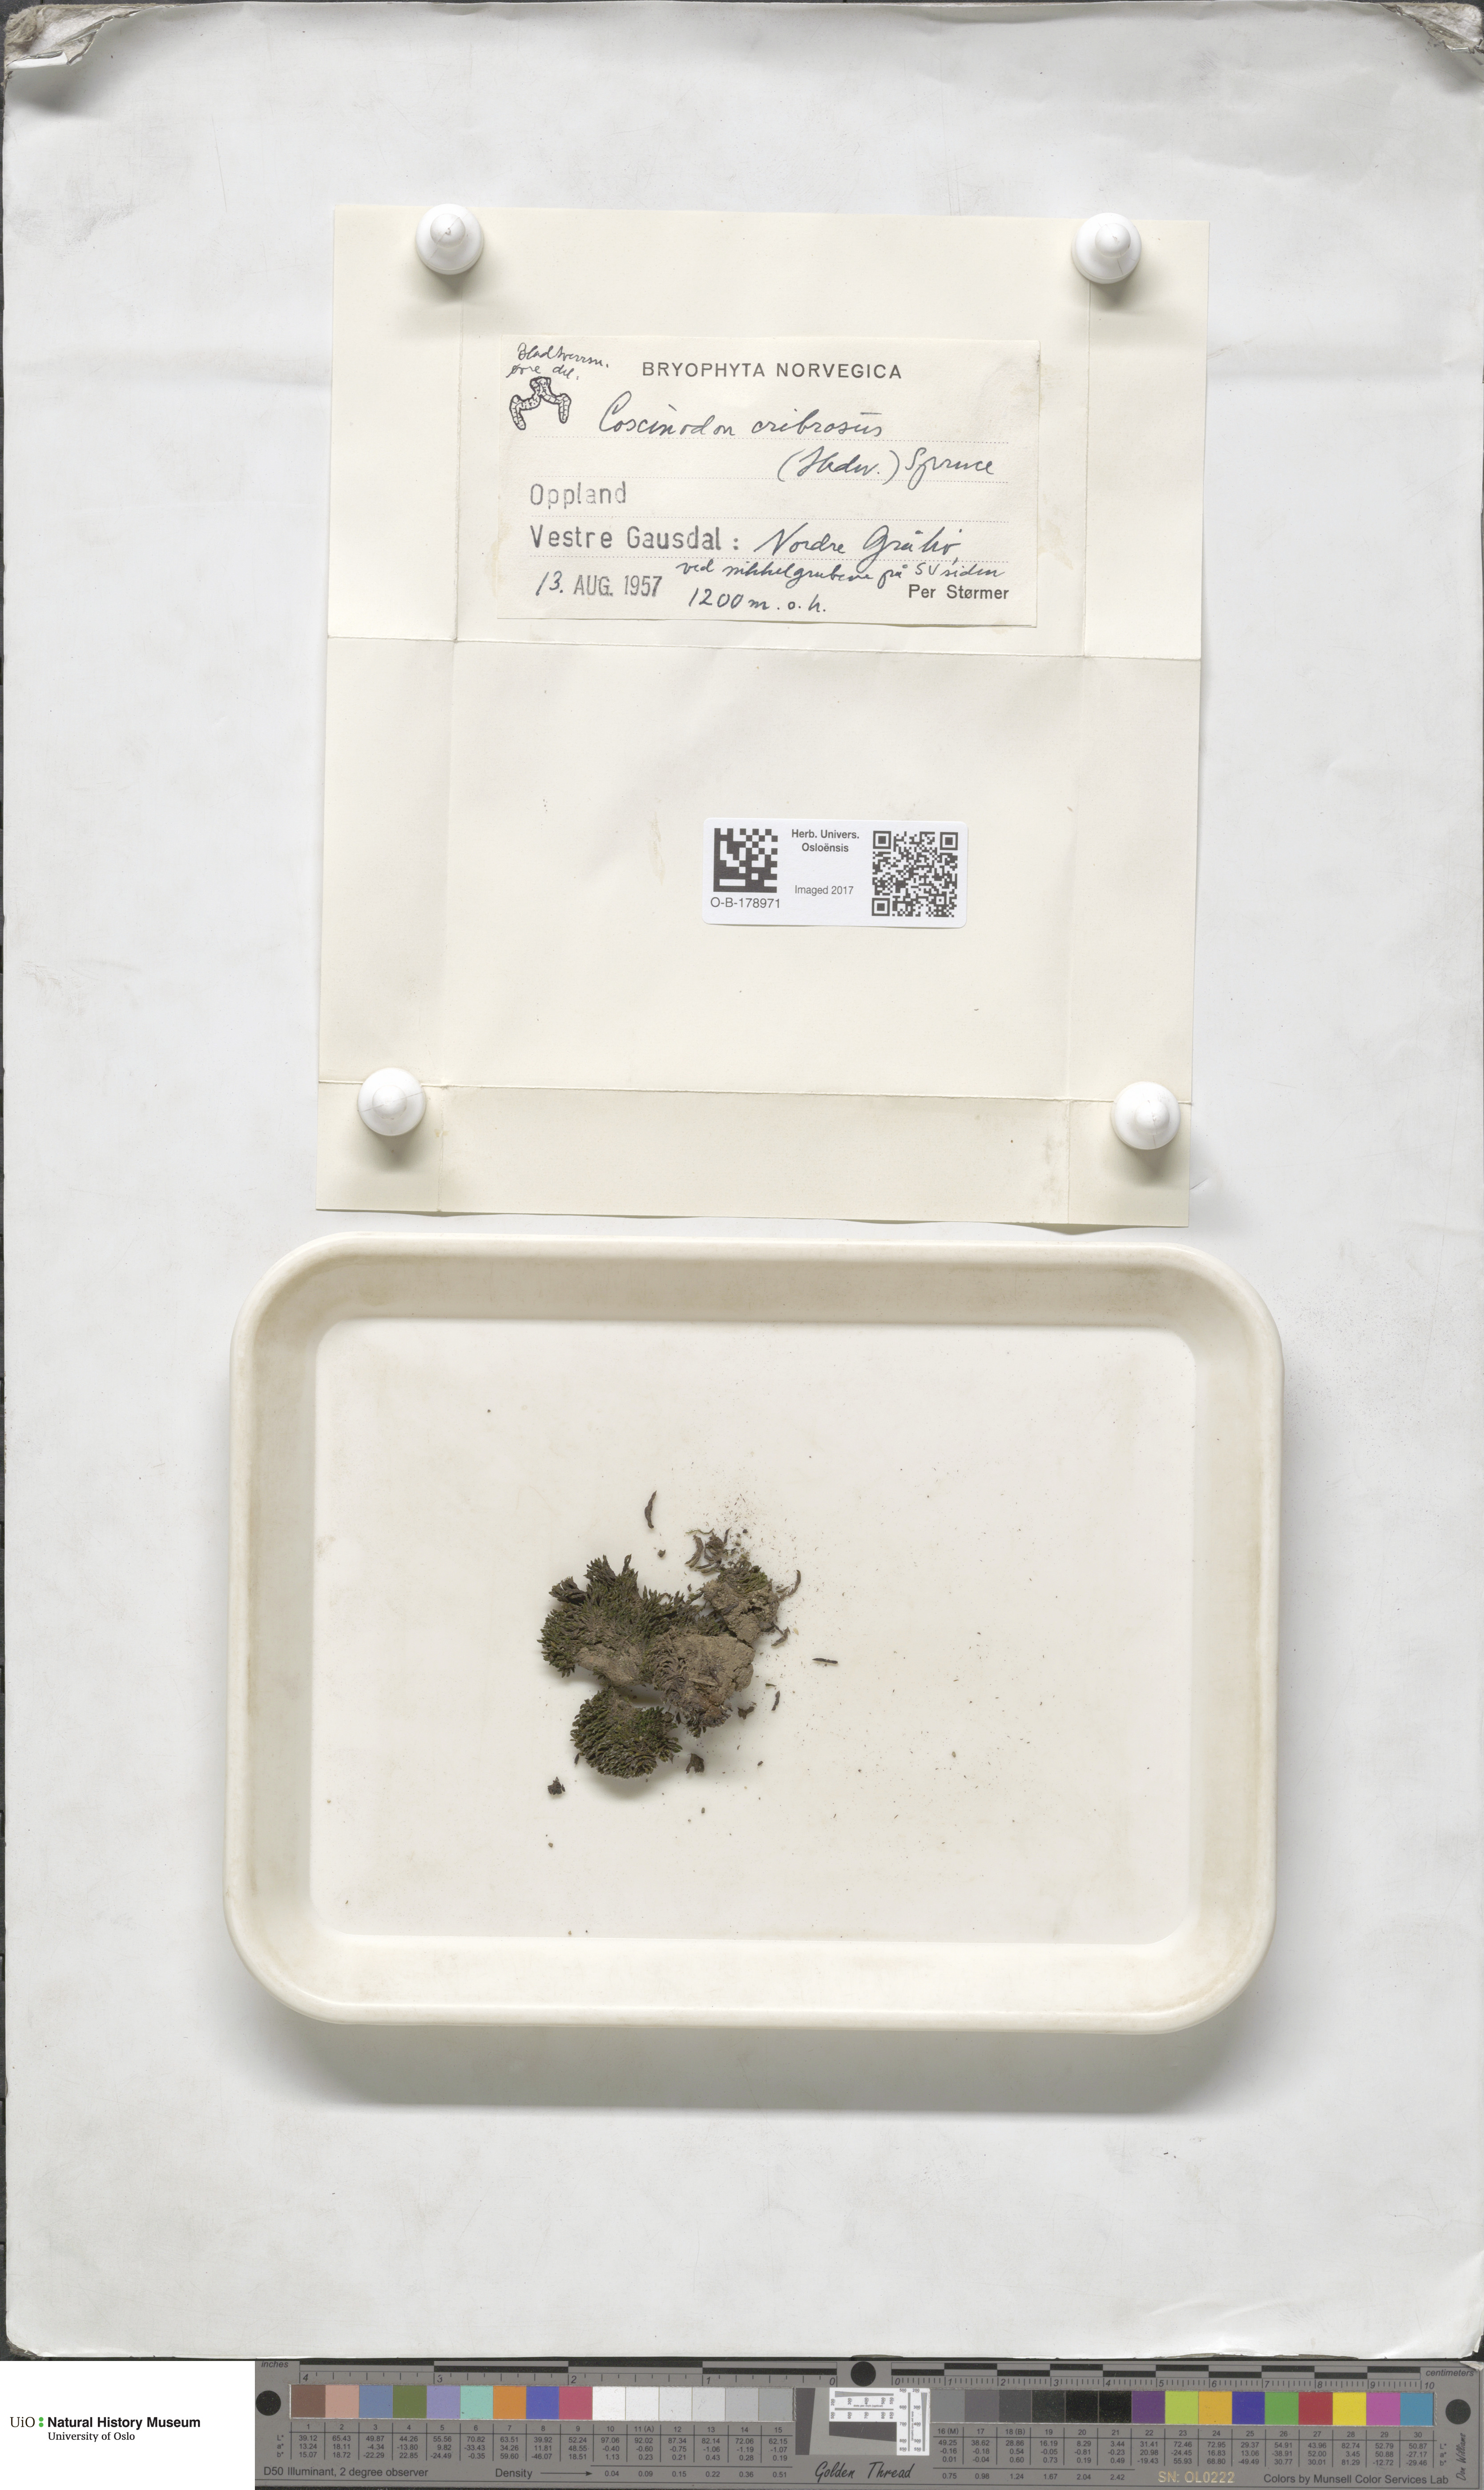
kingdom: Plantae
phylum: Bryophyta
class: Bryopsida
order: Grimmiales
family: Grimmiaceae
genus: Coscinodon
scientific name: Coscinodon cribrosus
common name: Sieve-tooth moss
